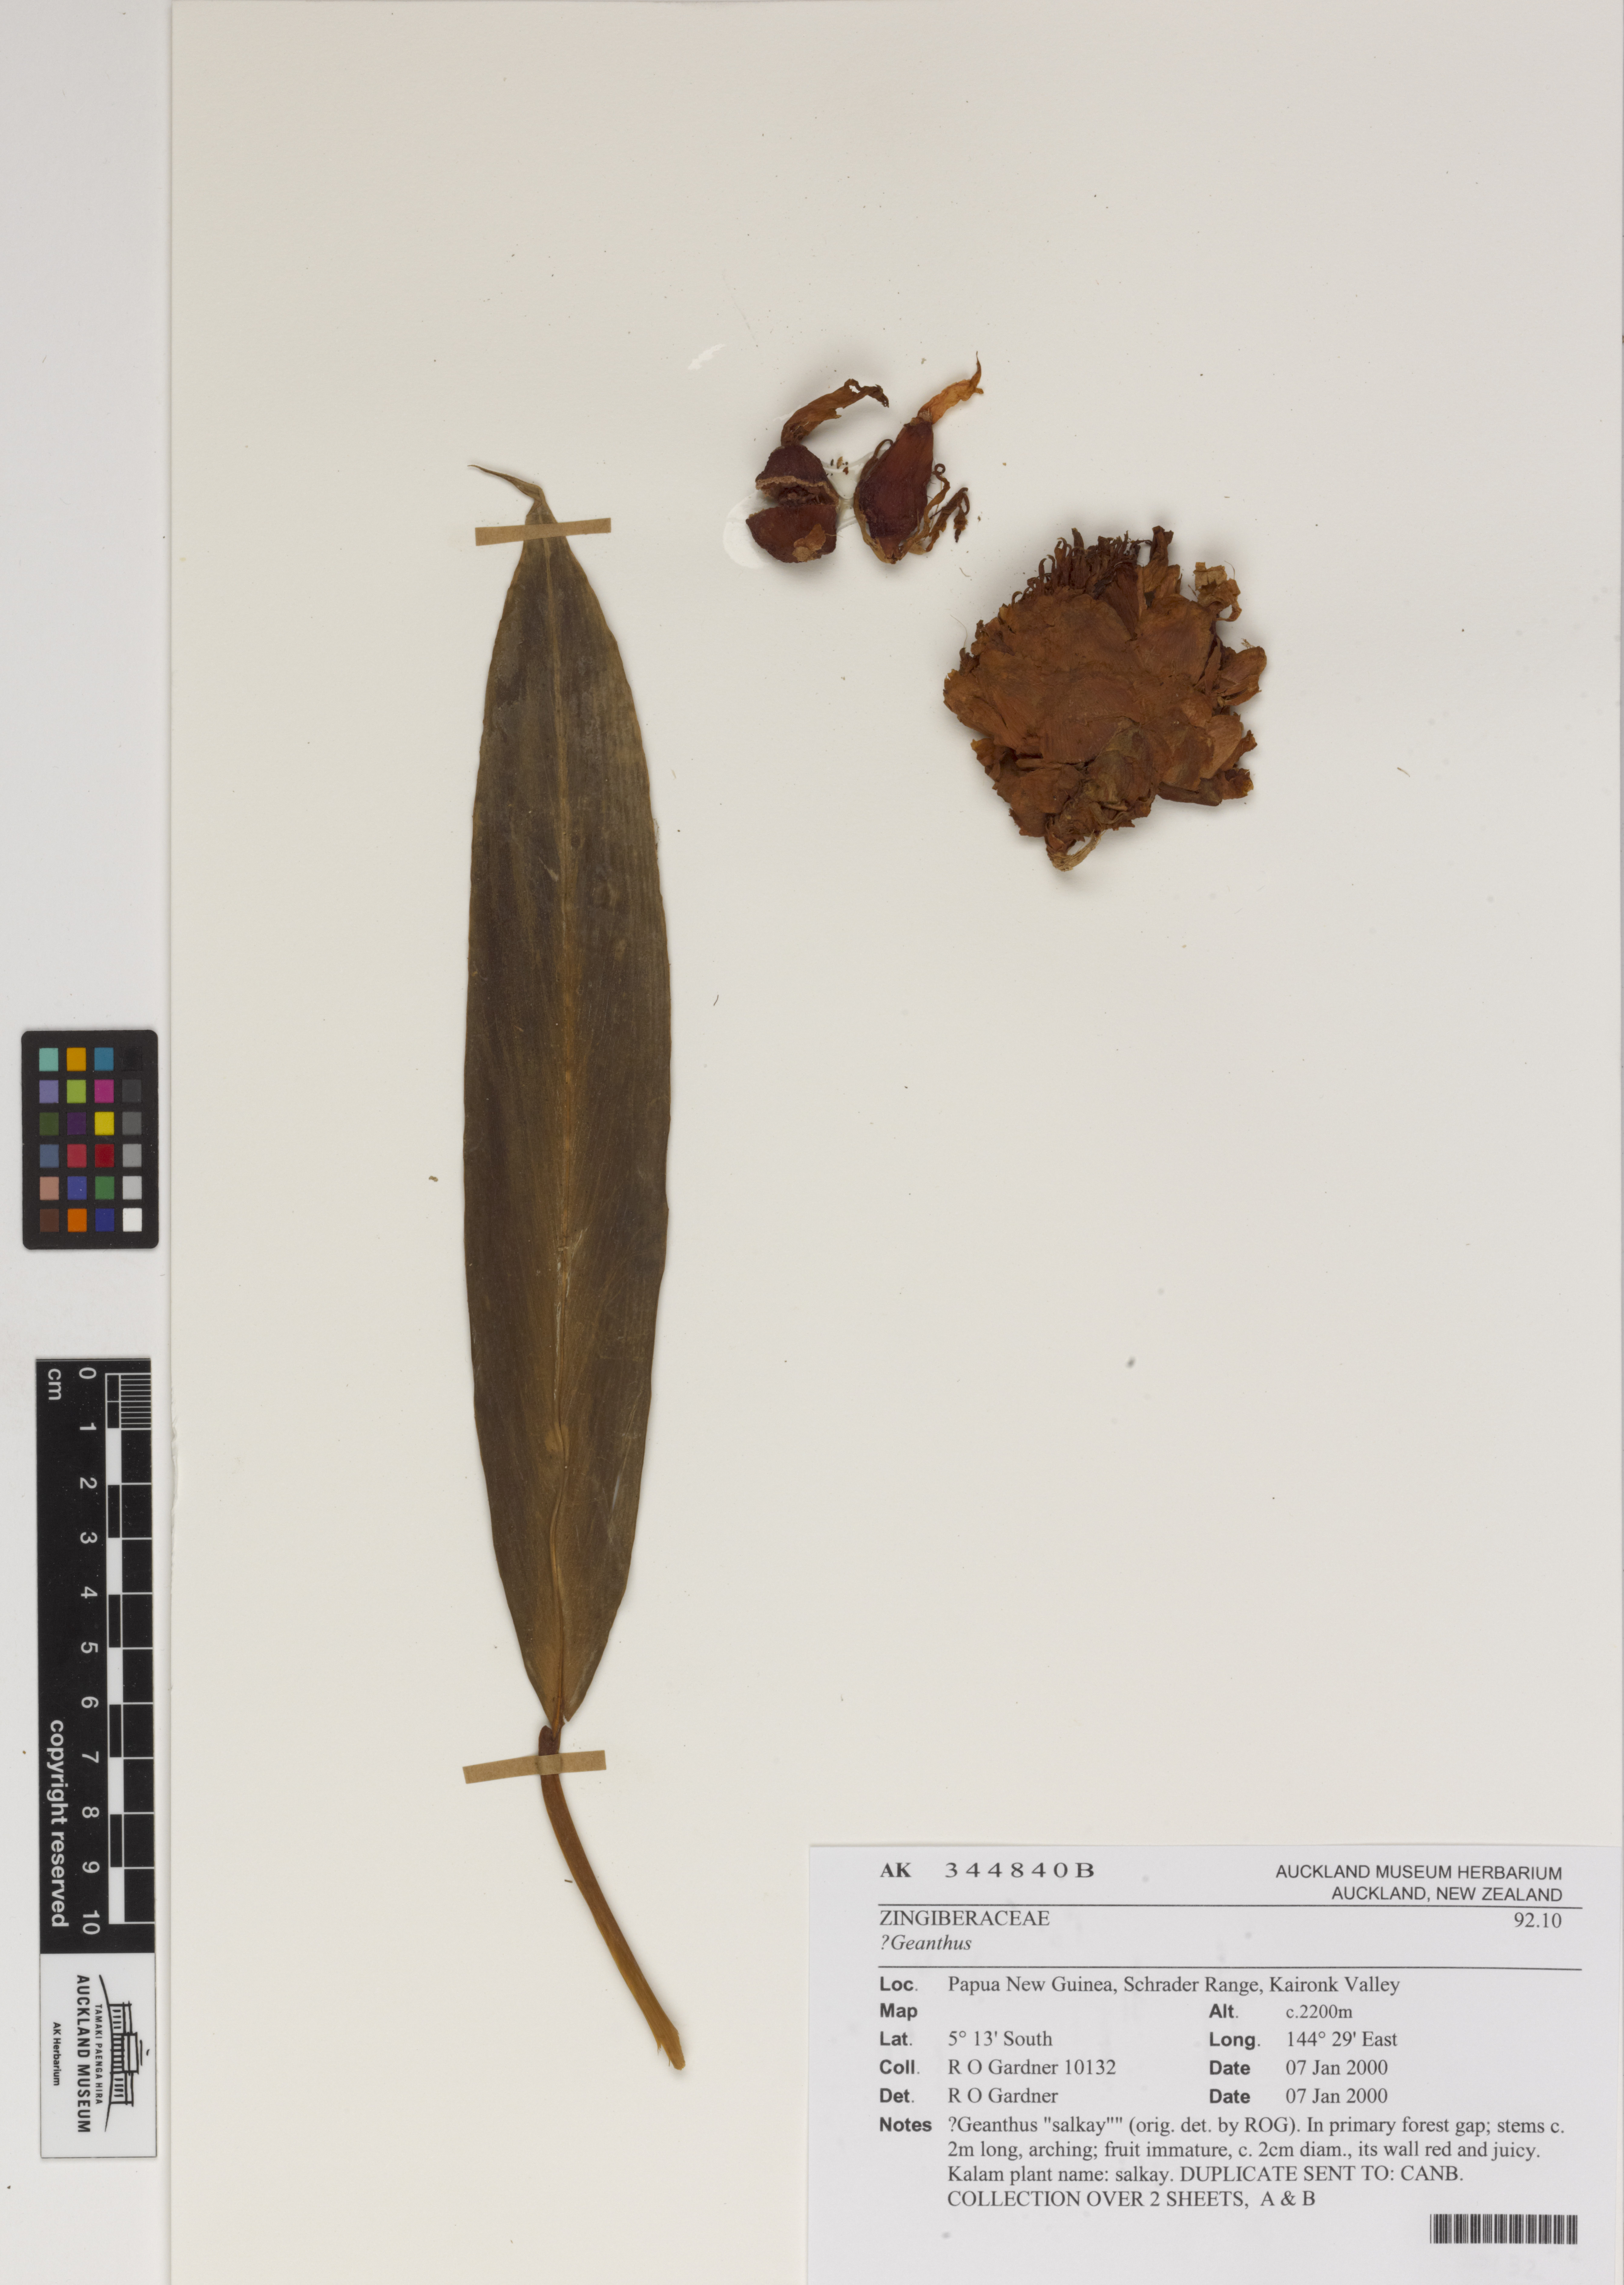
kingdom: Plantae
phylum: Tracheophyta
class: Liliopsida
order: Zingiberales
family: Zingiberaceae
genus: Geanthus
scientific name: Geanthus
